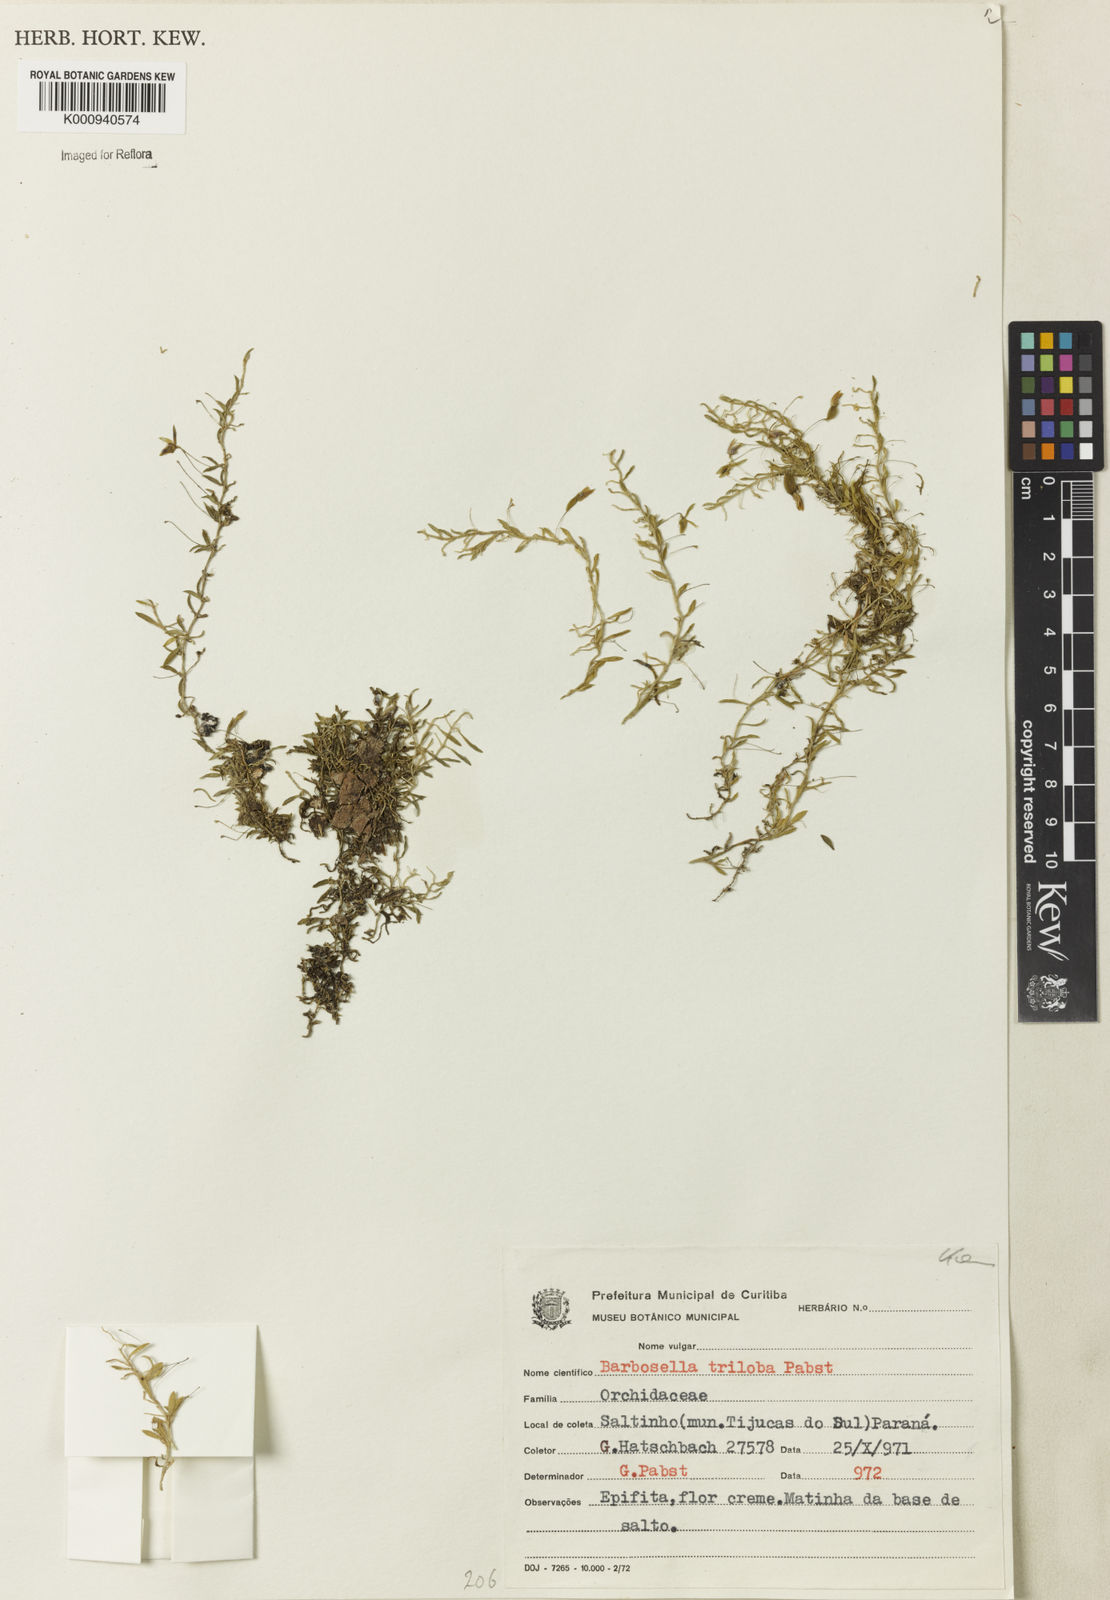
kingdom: Plantae
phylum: Tracheophyta
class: Liliopsida
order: Asparagales
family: Orchidaceae
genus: Barbosella
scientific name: Barbosella
